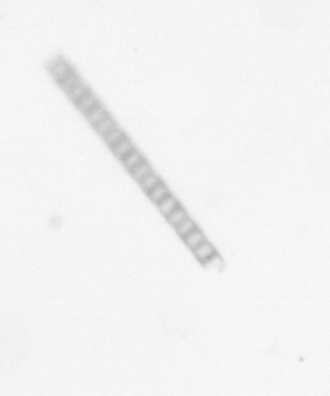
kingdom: Chromista
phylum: Ochrophyta
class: Bacillariophyceae
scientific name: Bacillariophyceae
